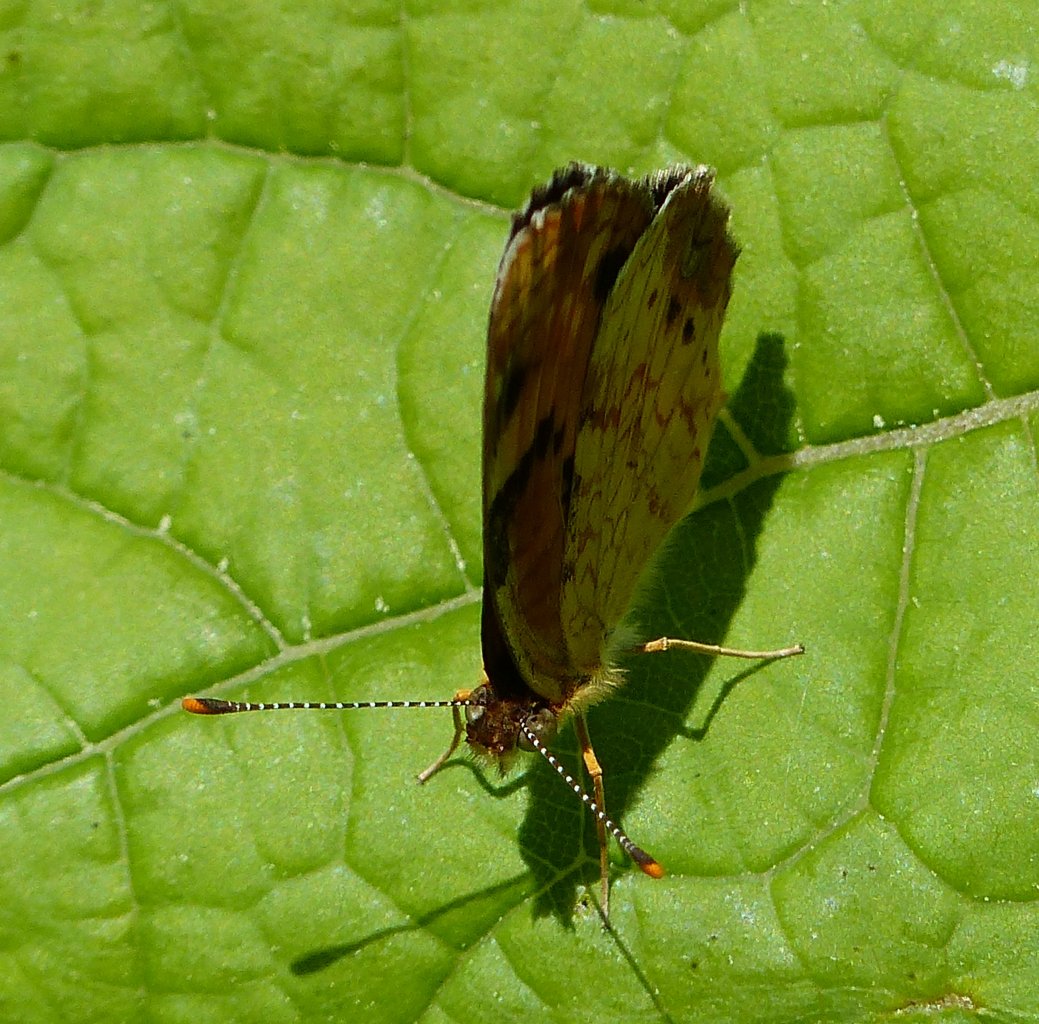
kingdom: Animalia
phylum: Arthropoda
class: Insecta
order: Lepidoptera
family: Nymphalidae
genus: Phyciodes
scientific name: Phyciodes tharos
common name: Northern Crescent
